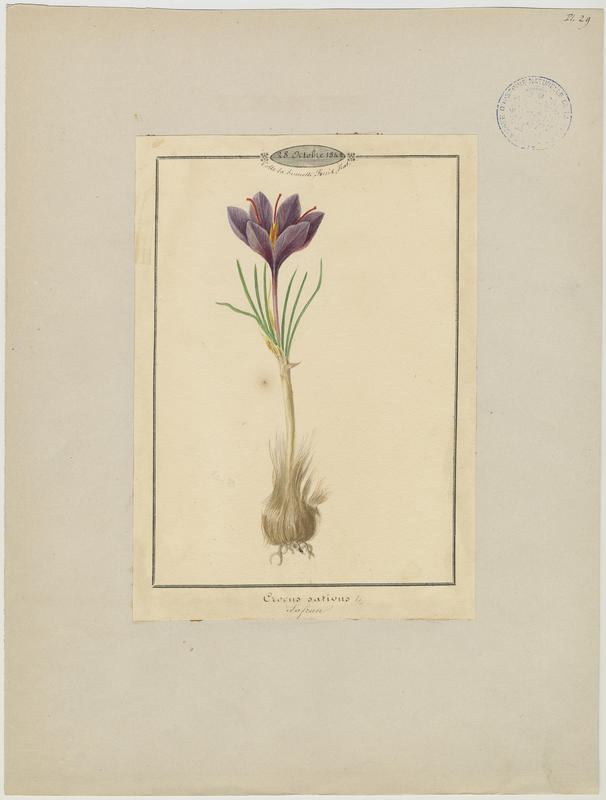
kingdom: Plantae
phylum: Tracheophyta
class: Liliopsida
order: Asparagales
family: Iridaceae
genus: Crocus
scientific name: Crocus sativus
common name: Saffron crocus
